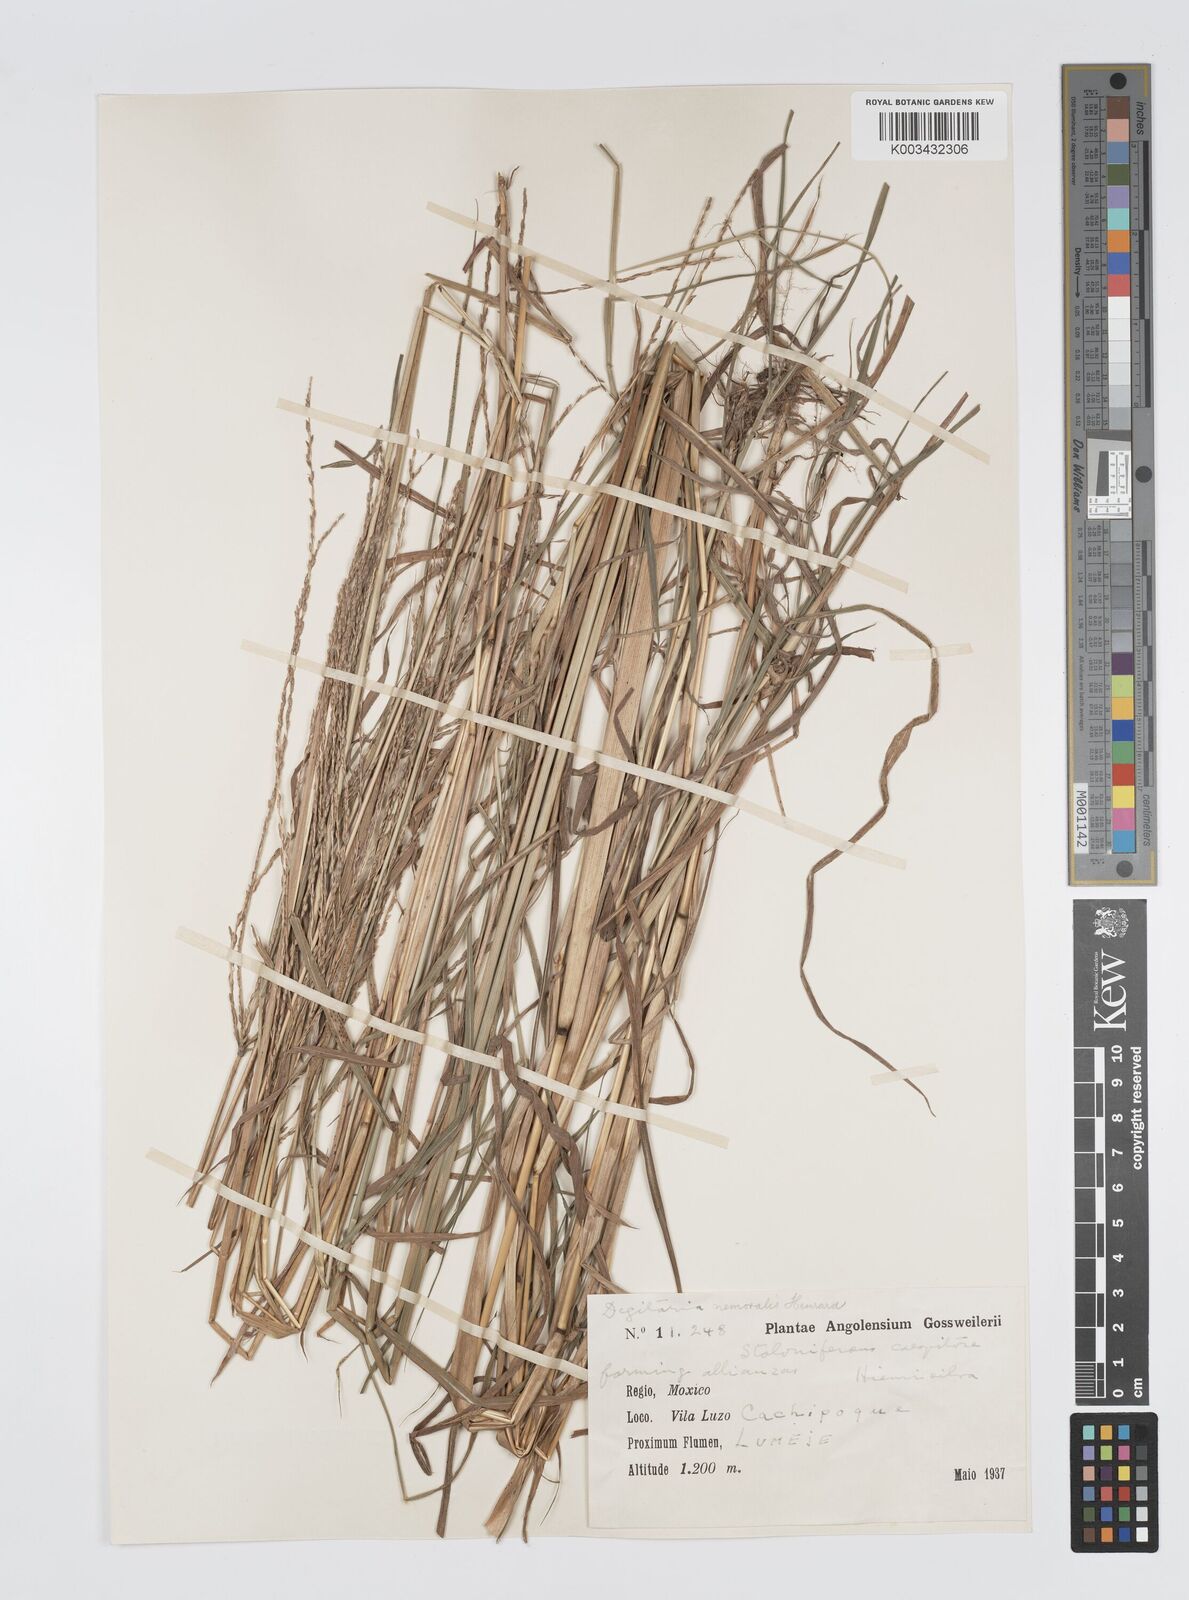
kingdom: Plantae
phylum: Tracheophyta
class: Liliopsida
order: Poales
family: Poaceae
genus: Digitaria
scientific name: Digitaria seriata
